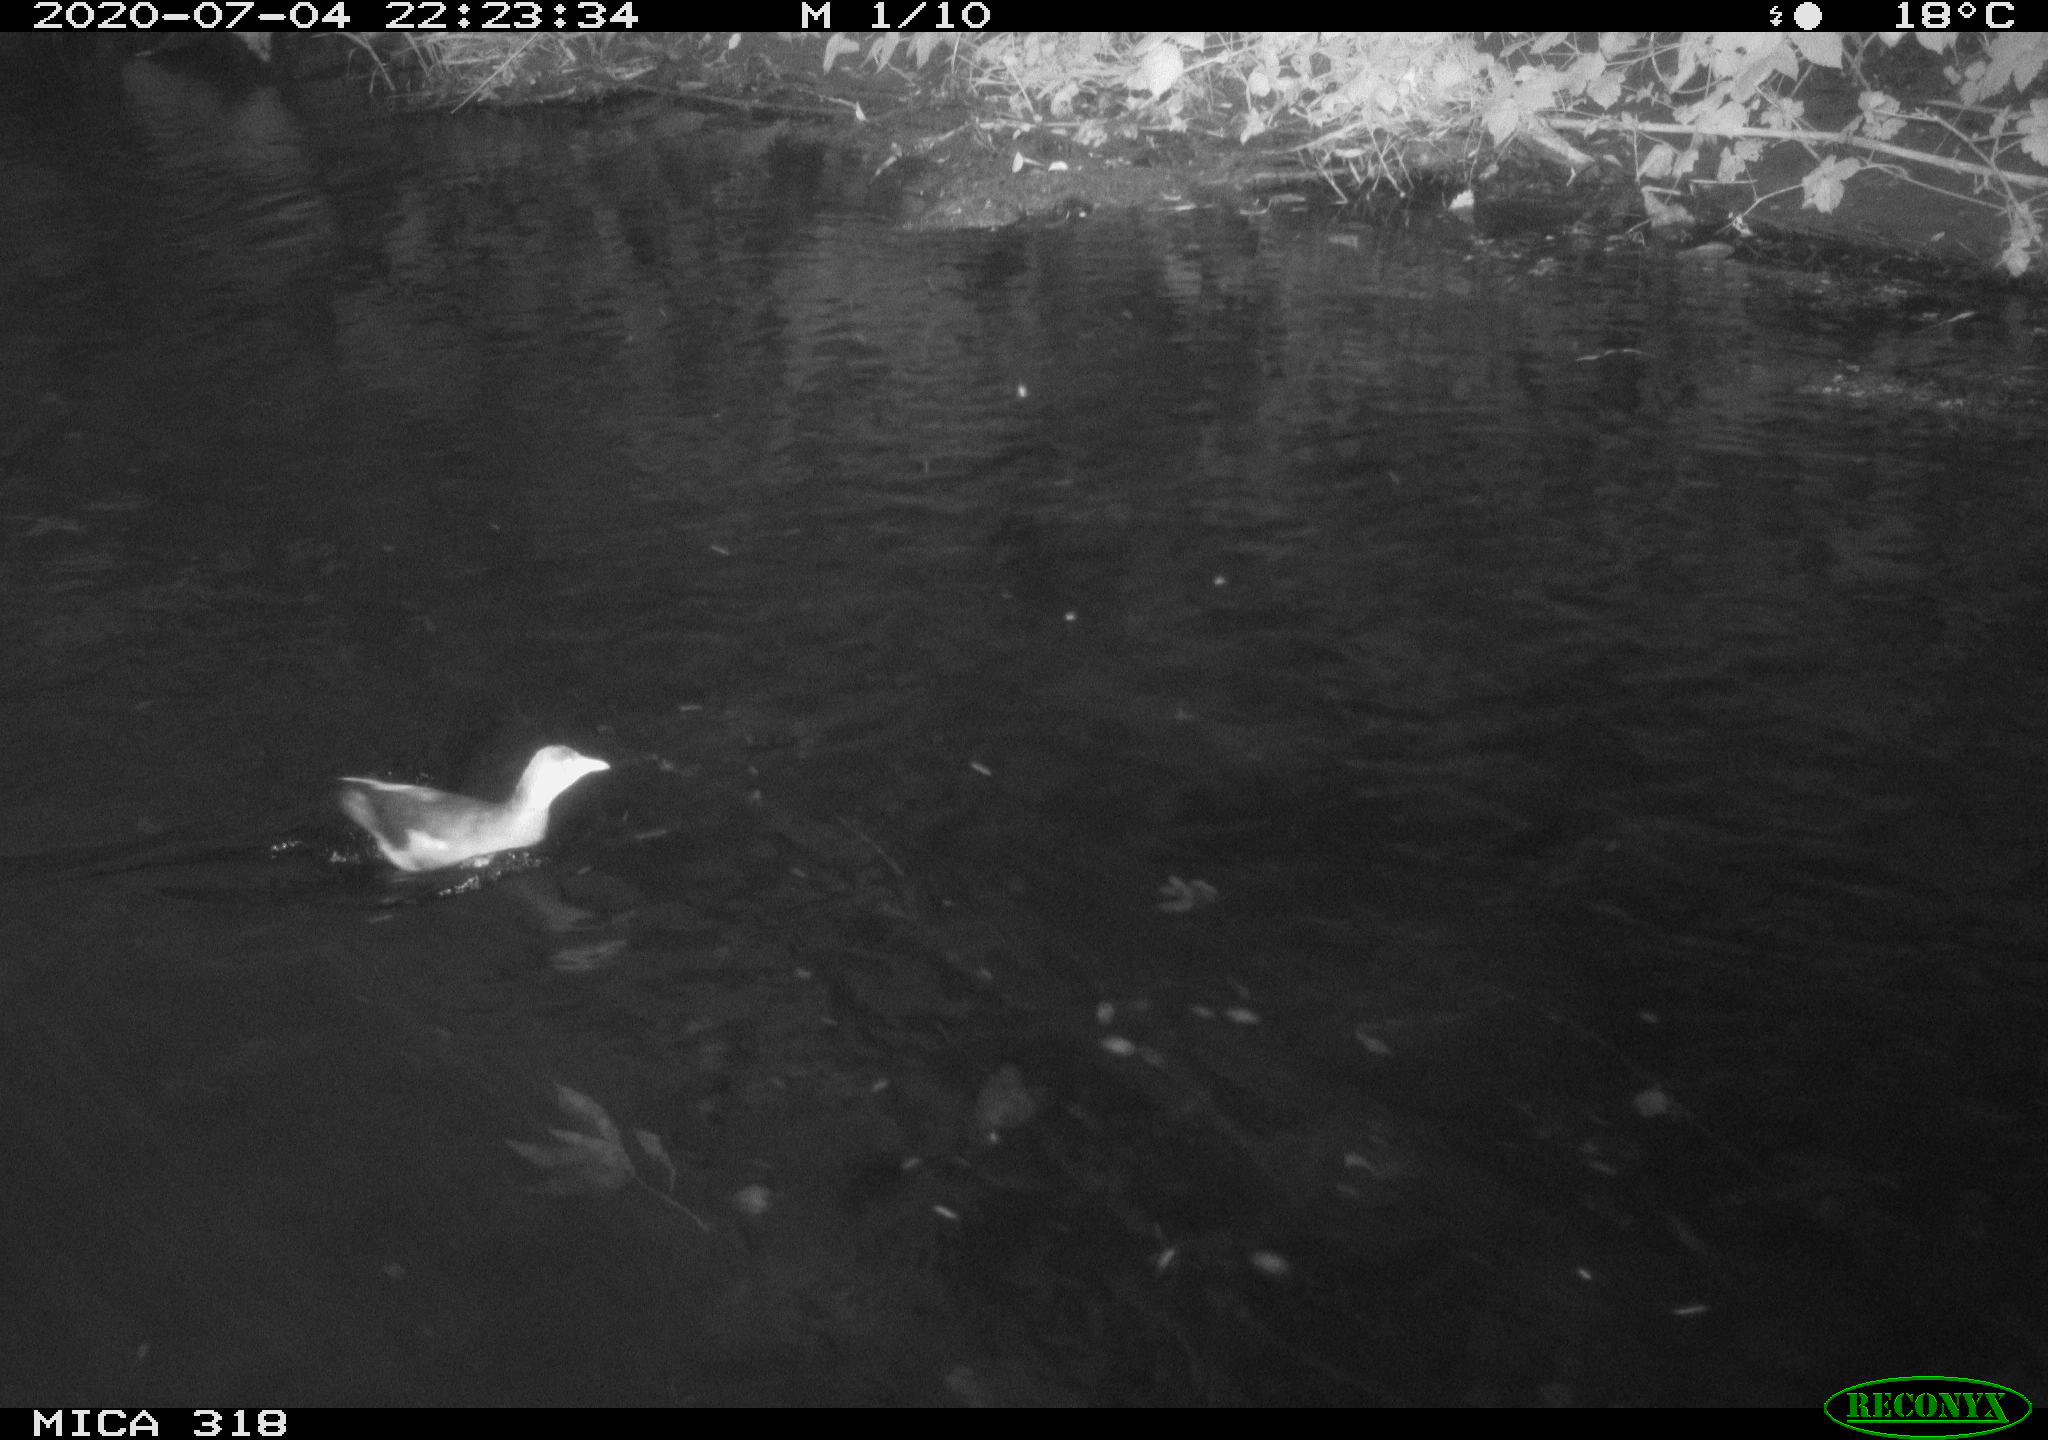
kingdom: Animalia
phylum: Chordata
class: Aves
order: Anseriformes
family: Anatidae
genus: Mareca
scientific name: Mareca strepera
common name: Gadwall
